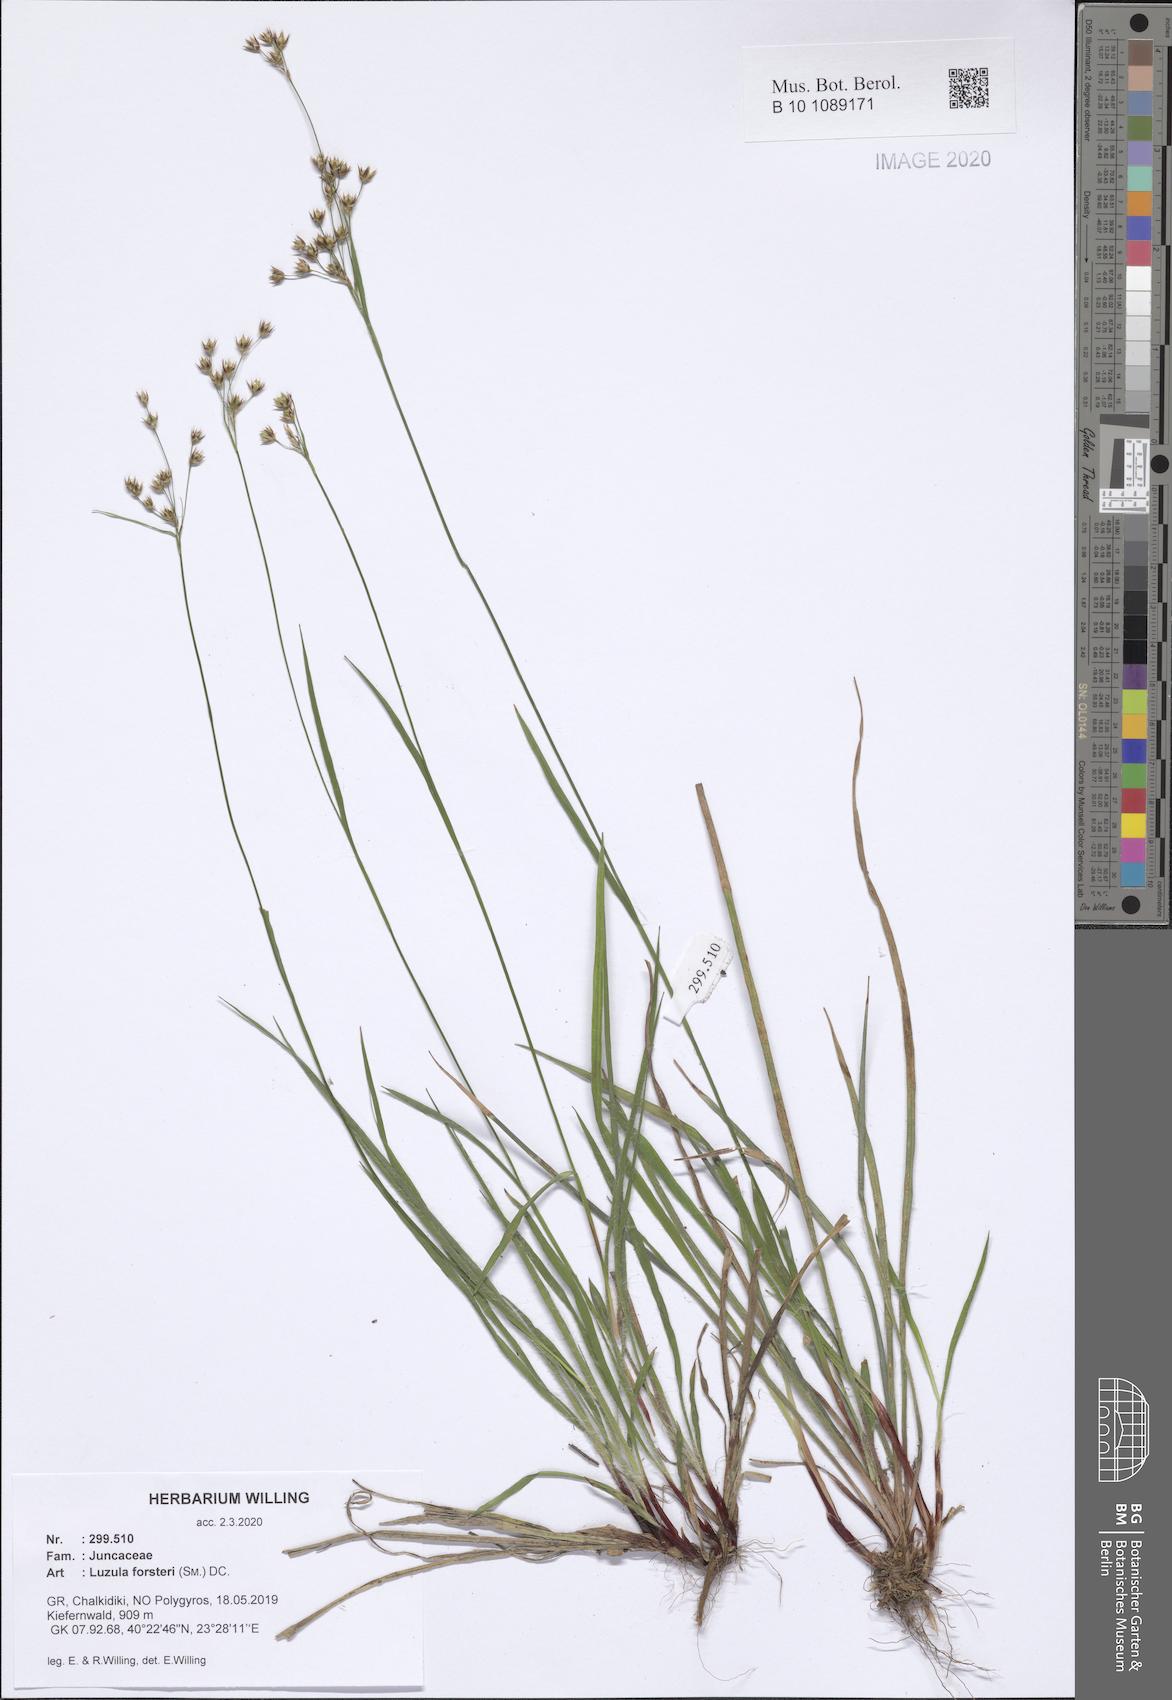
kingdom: Plantae
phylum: Tracheophyta
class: Liliopsida
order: Poales
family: Juncaceae
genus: Luzula
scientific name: Luzula forsteri
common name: Southern wood-rush
